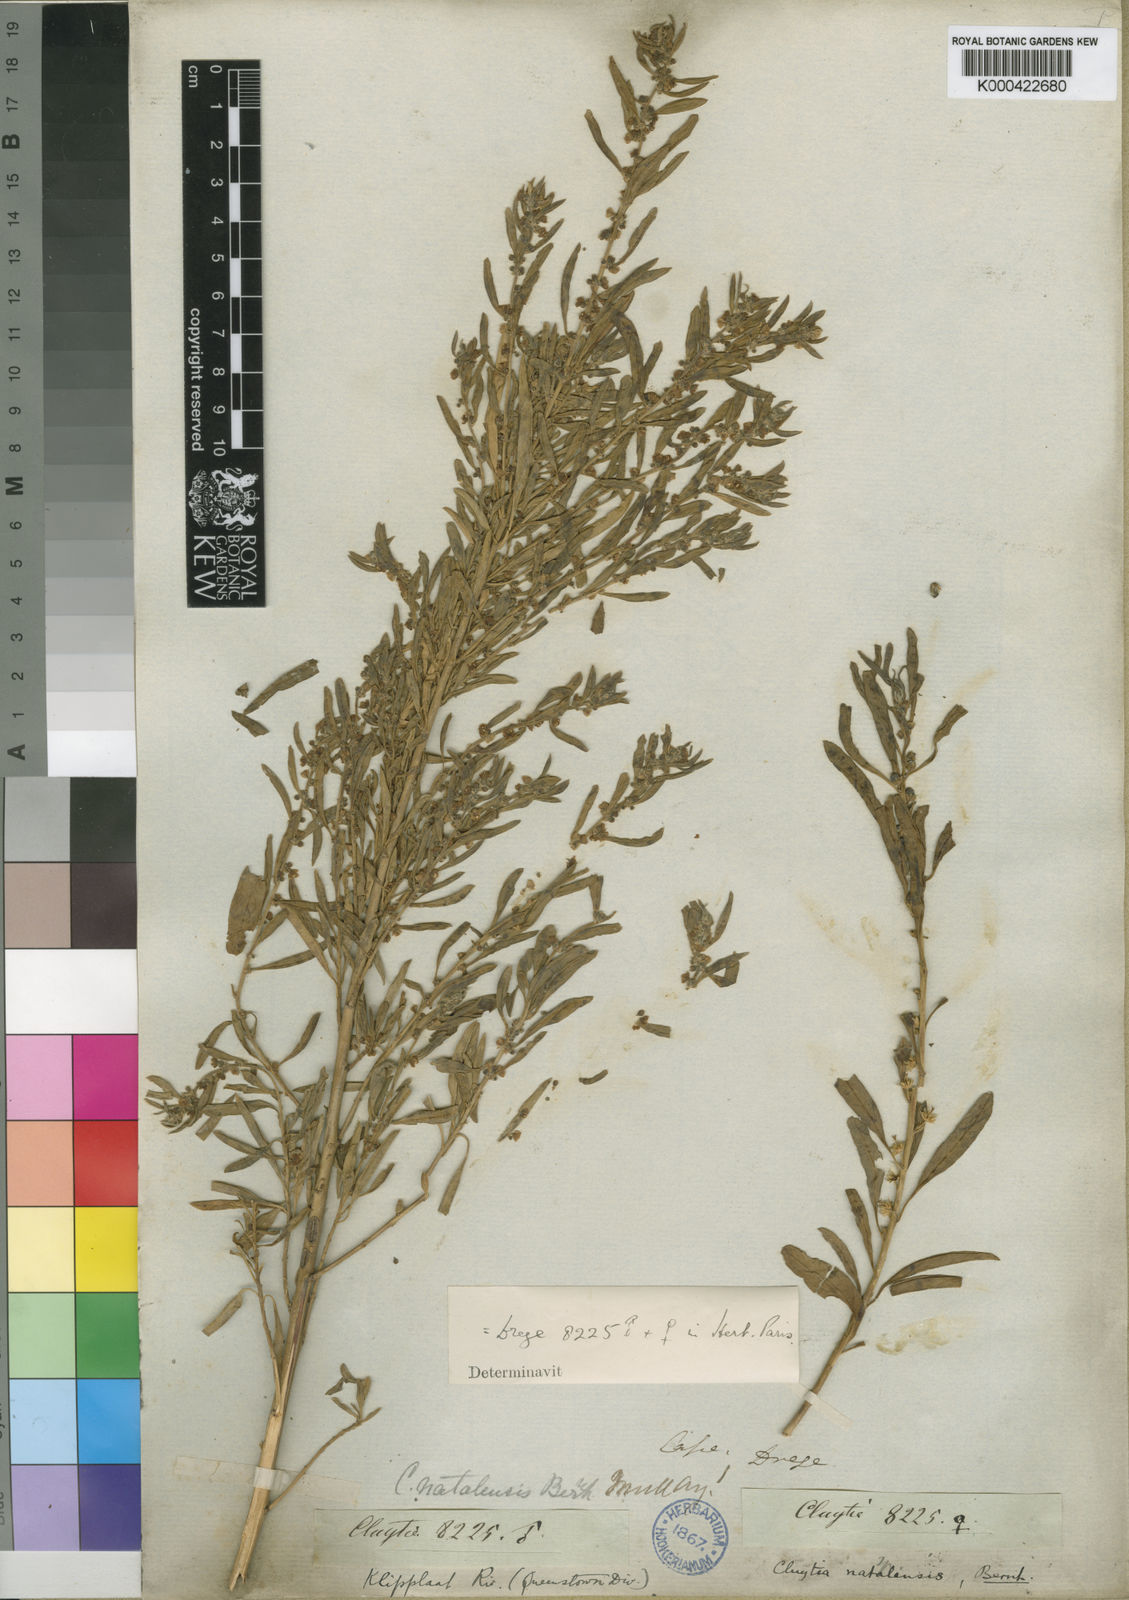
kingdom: Plantae
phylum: Tracheophyta
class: Magnoliopsida
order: Malpighiales
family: Peraceae
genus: Clutia
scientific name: Clutia natalensis
